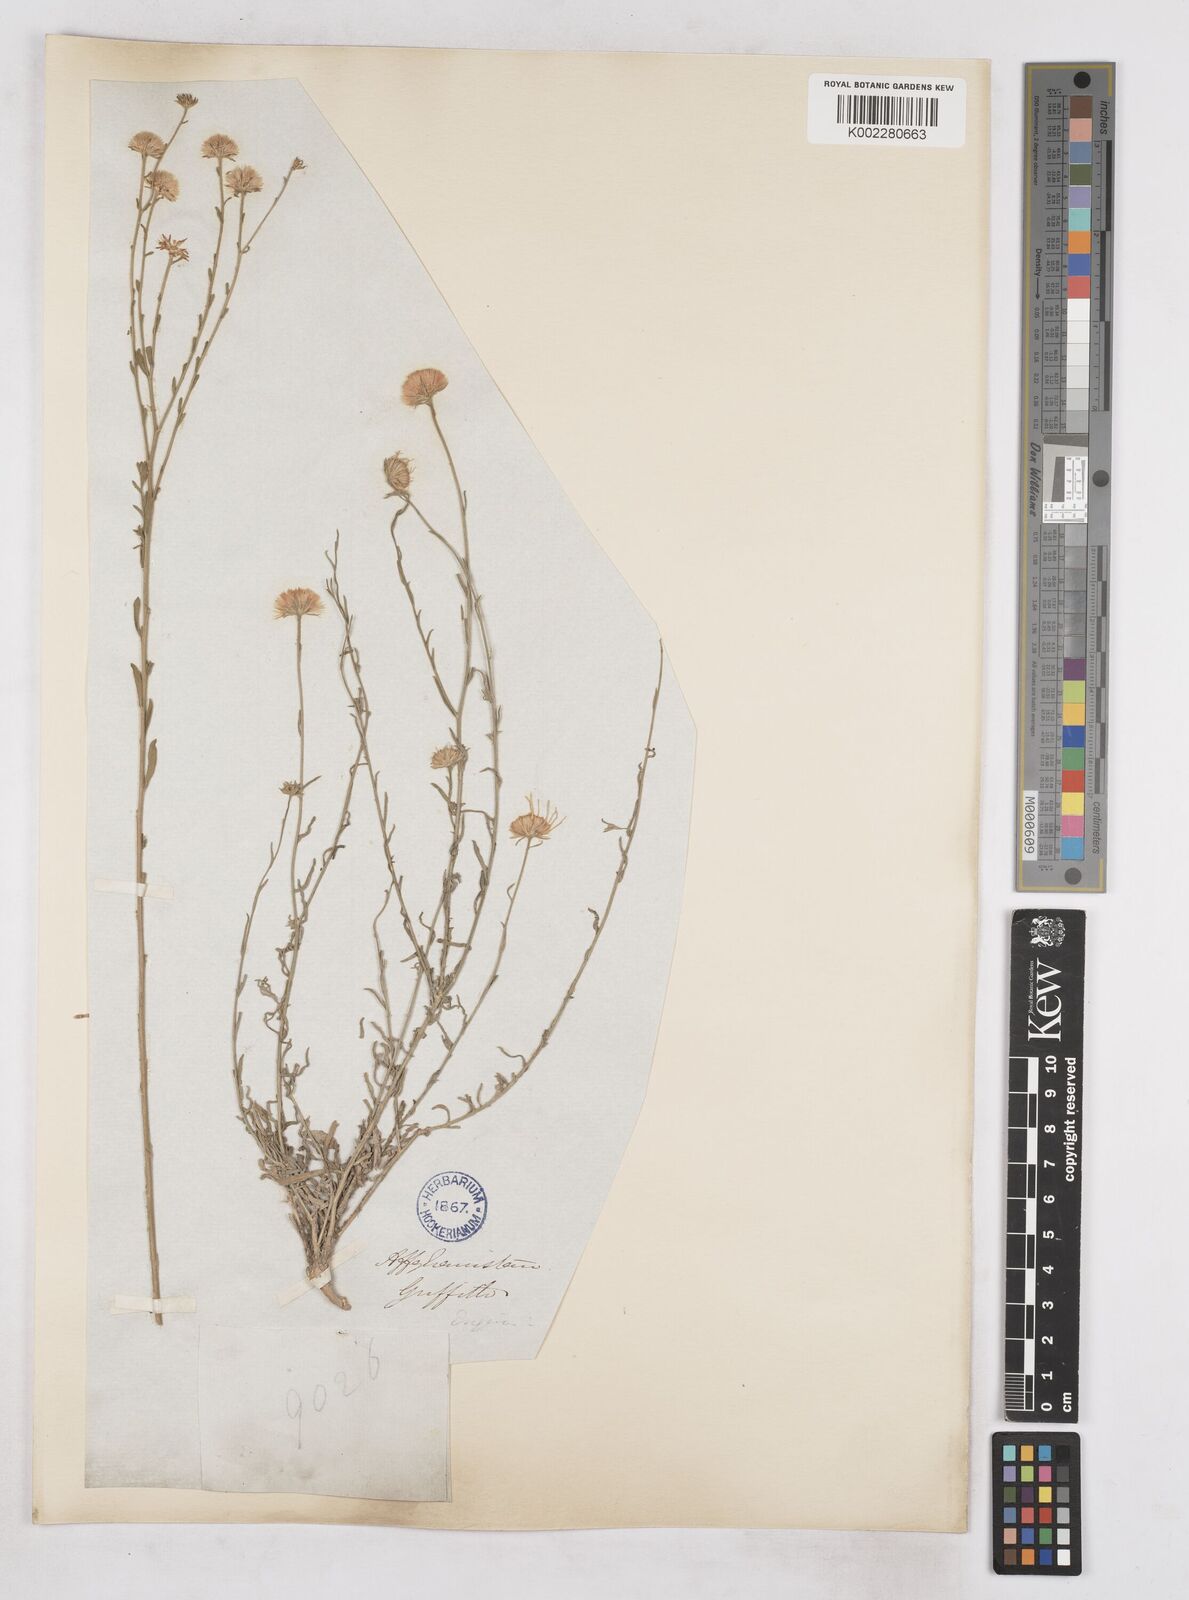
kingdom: Plantae
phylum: Tracheophyta
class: Magnoliopsida
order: Asterales
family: Asteraceae
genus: Heteropappus
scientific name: Heteropappus altaicus
